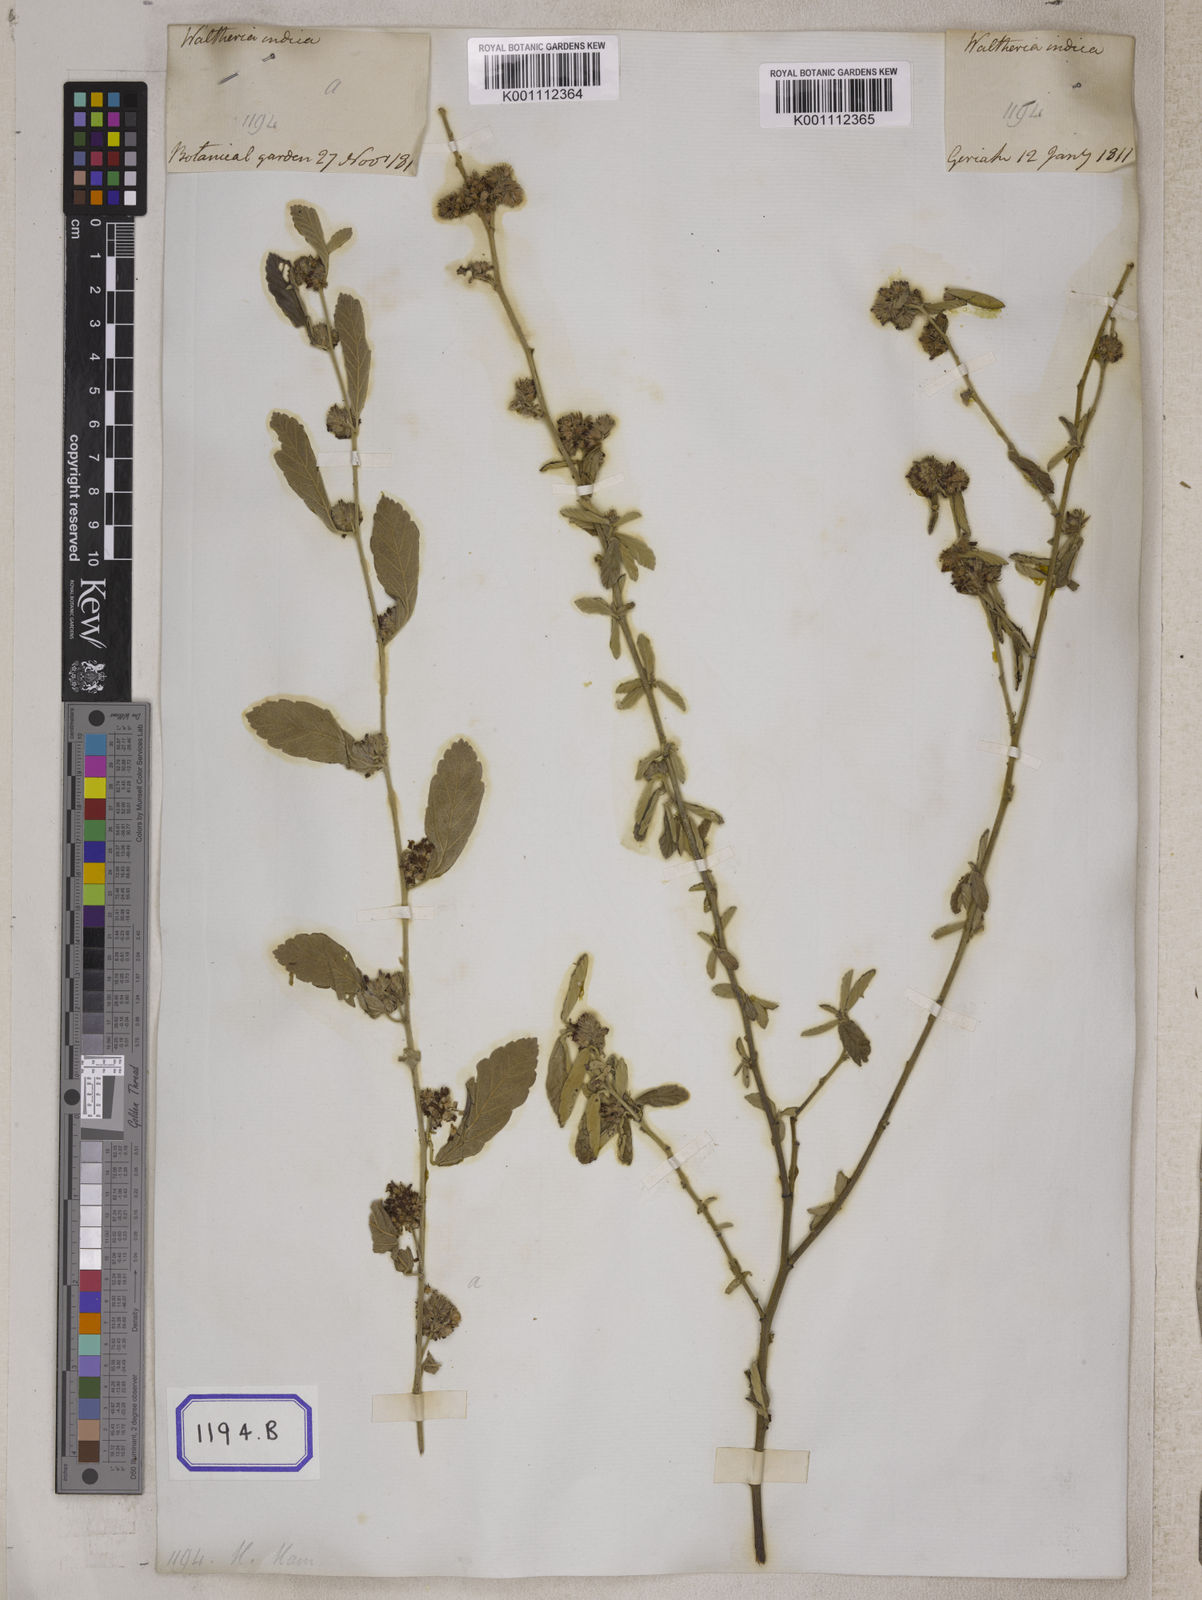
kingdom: Plantae
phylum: Tracheophyta
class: Magnoliopsida
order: Malvales
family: Malvaceae
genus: Waltheria
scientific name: Waltheria indica
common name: Leather-coat
